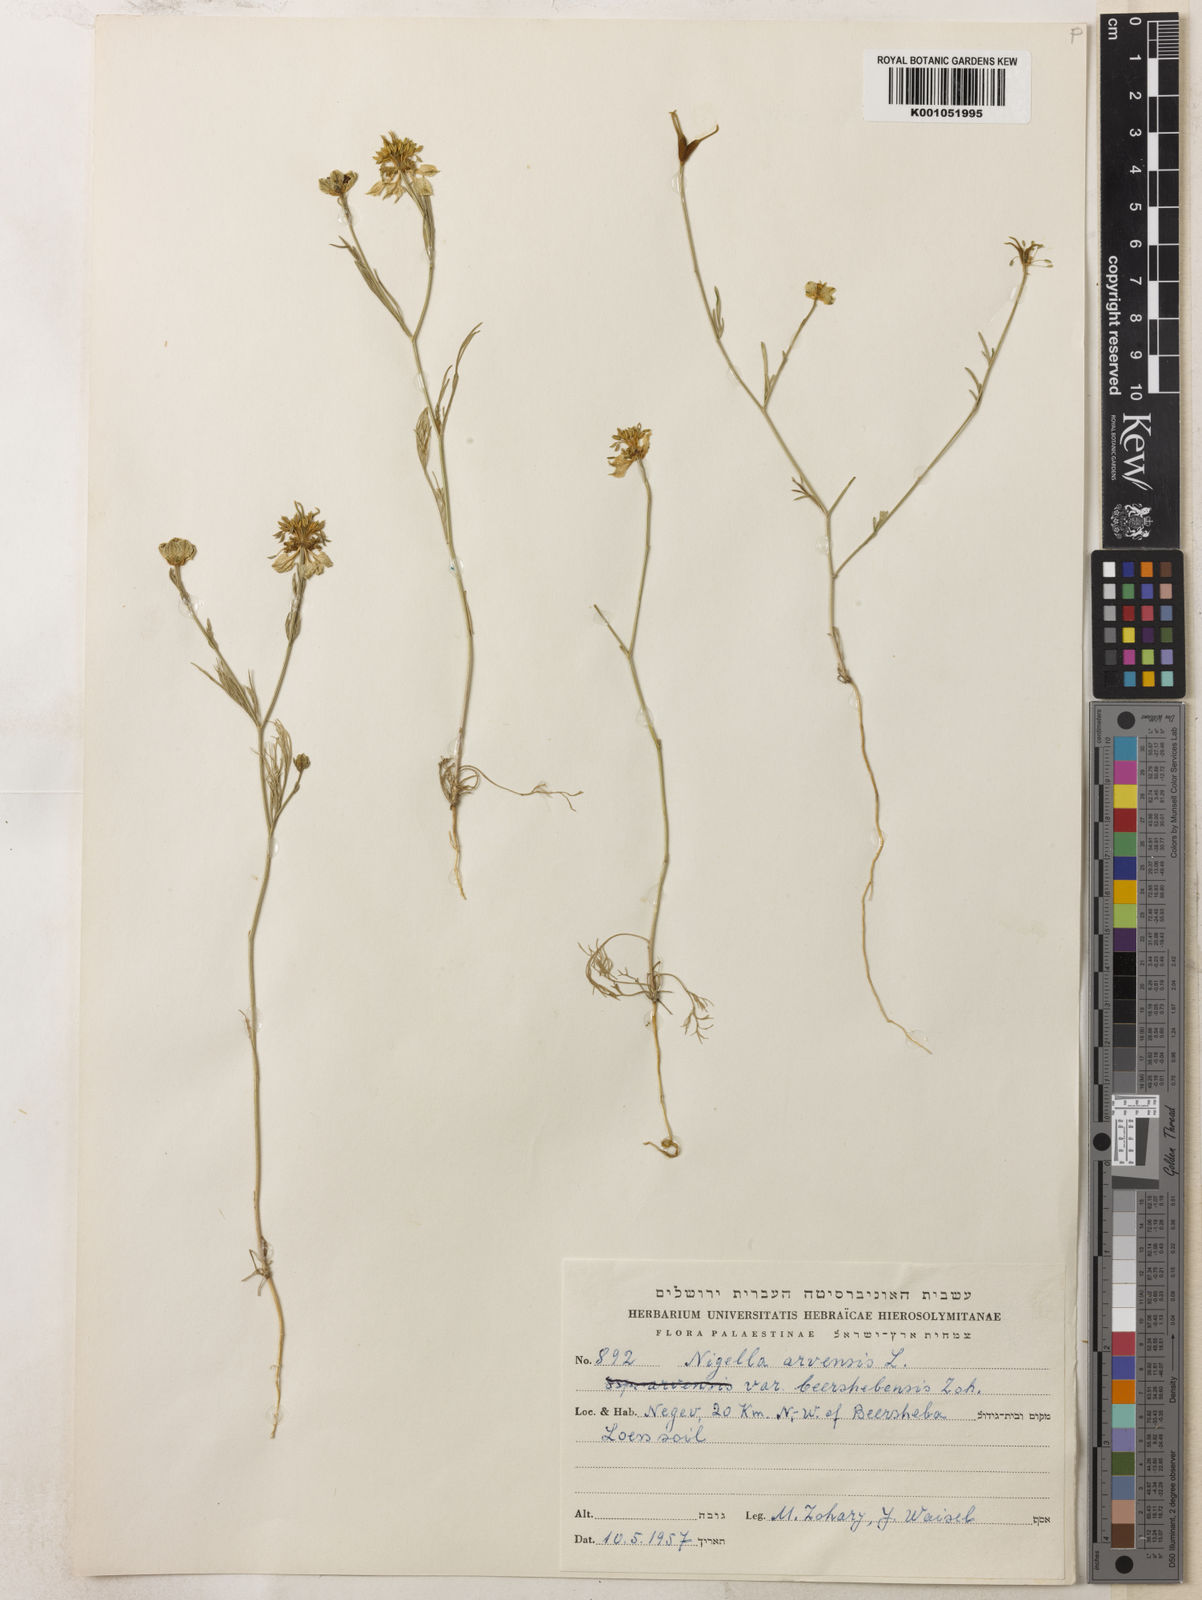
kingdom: Plantae
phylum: Tracheophyta
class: Magnoliopsida
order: Ranunculales
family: Ranunculaceae
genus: Nigella
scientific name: Nigella arvensis
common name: Wild fennel-flower
